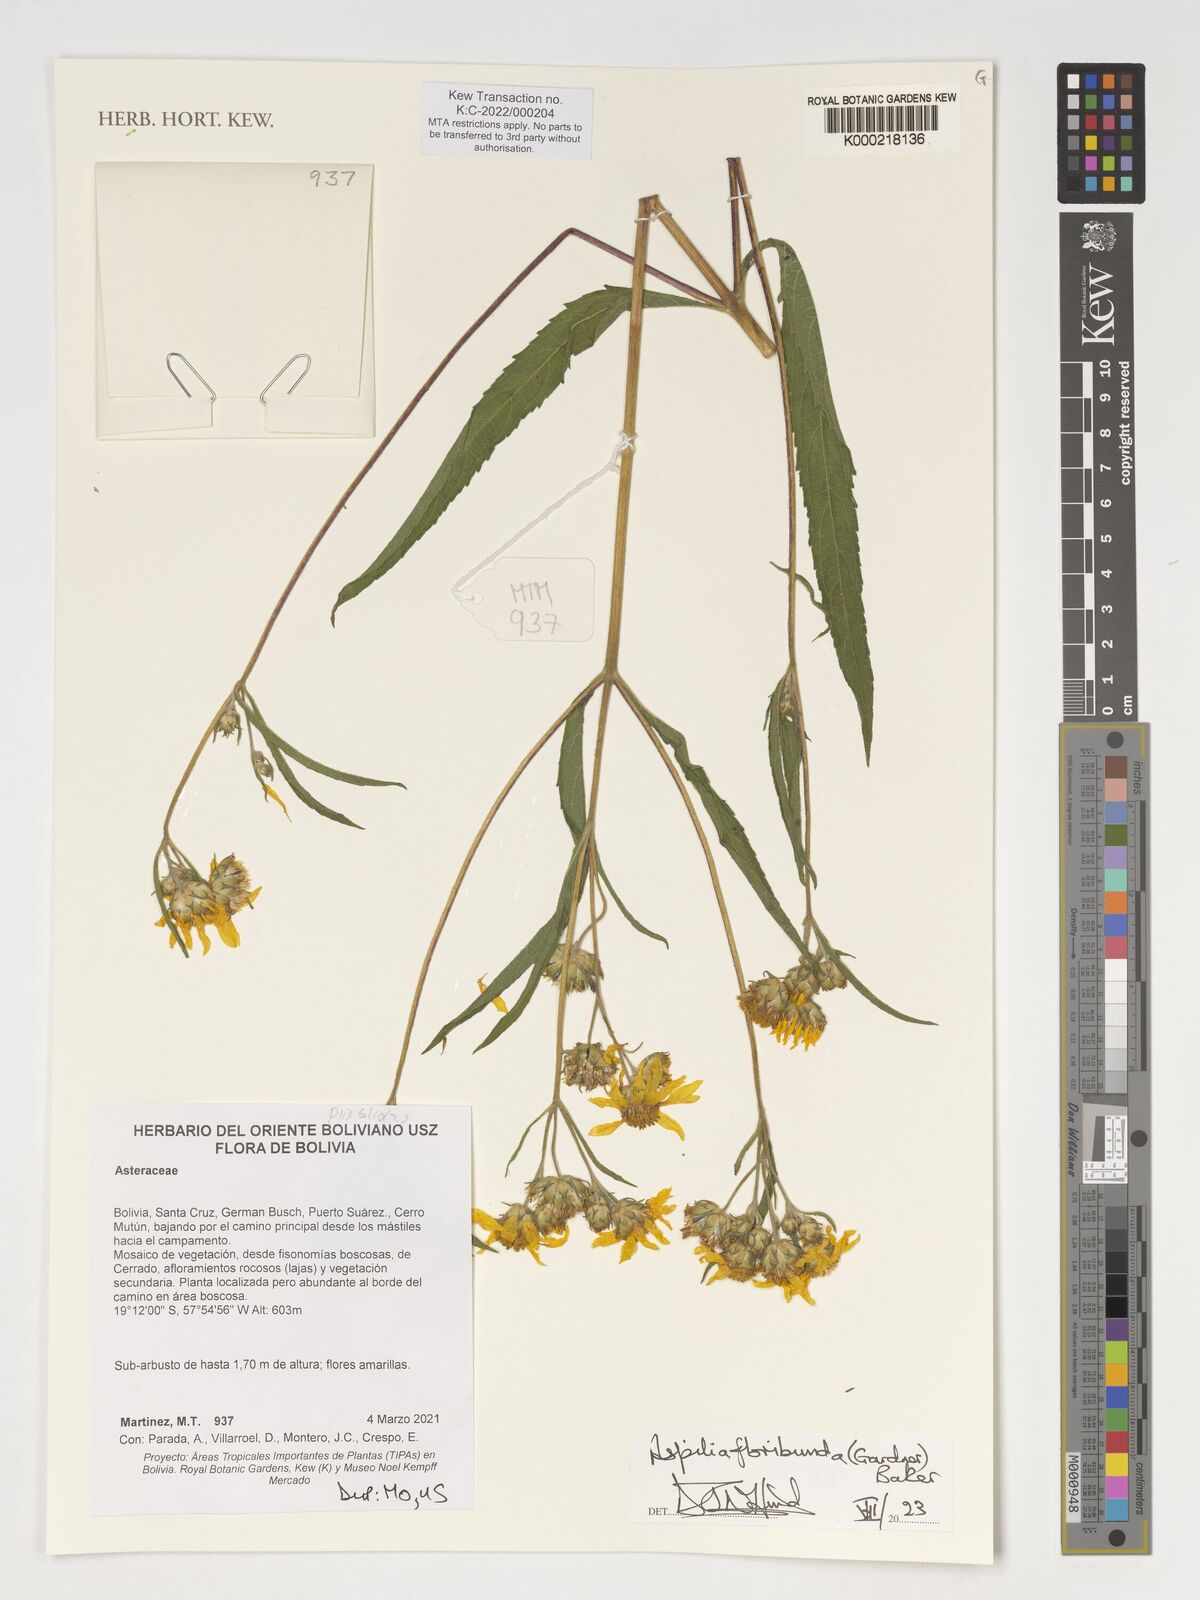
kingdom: Plantae
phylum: Tracheophyta
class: Magnoliopsida
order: Asterales
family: Asteraceae
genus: Wedelia
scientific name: Wedelia floribunda
